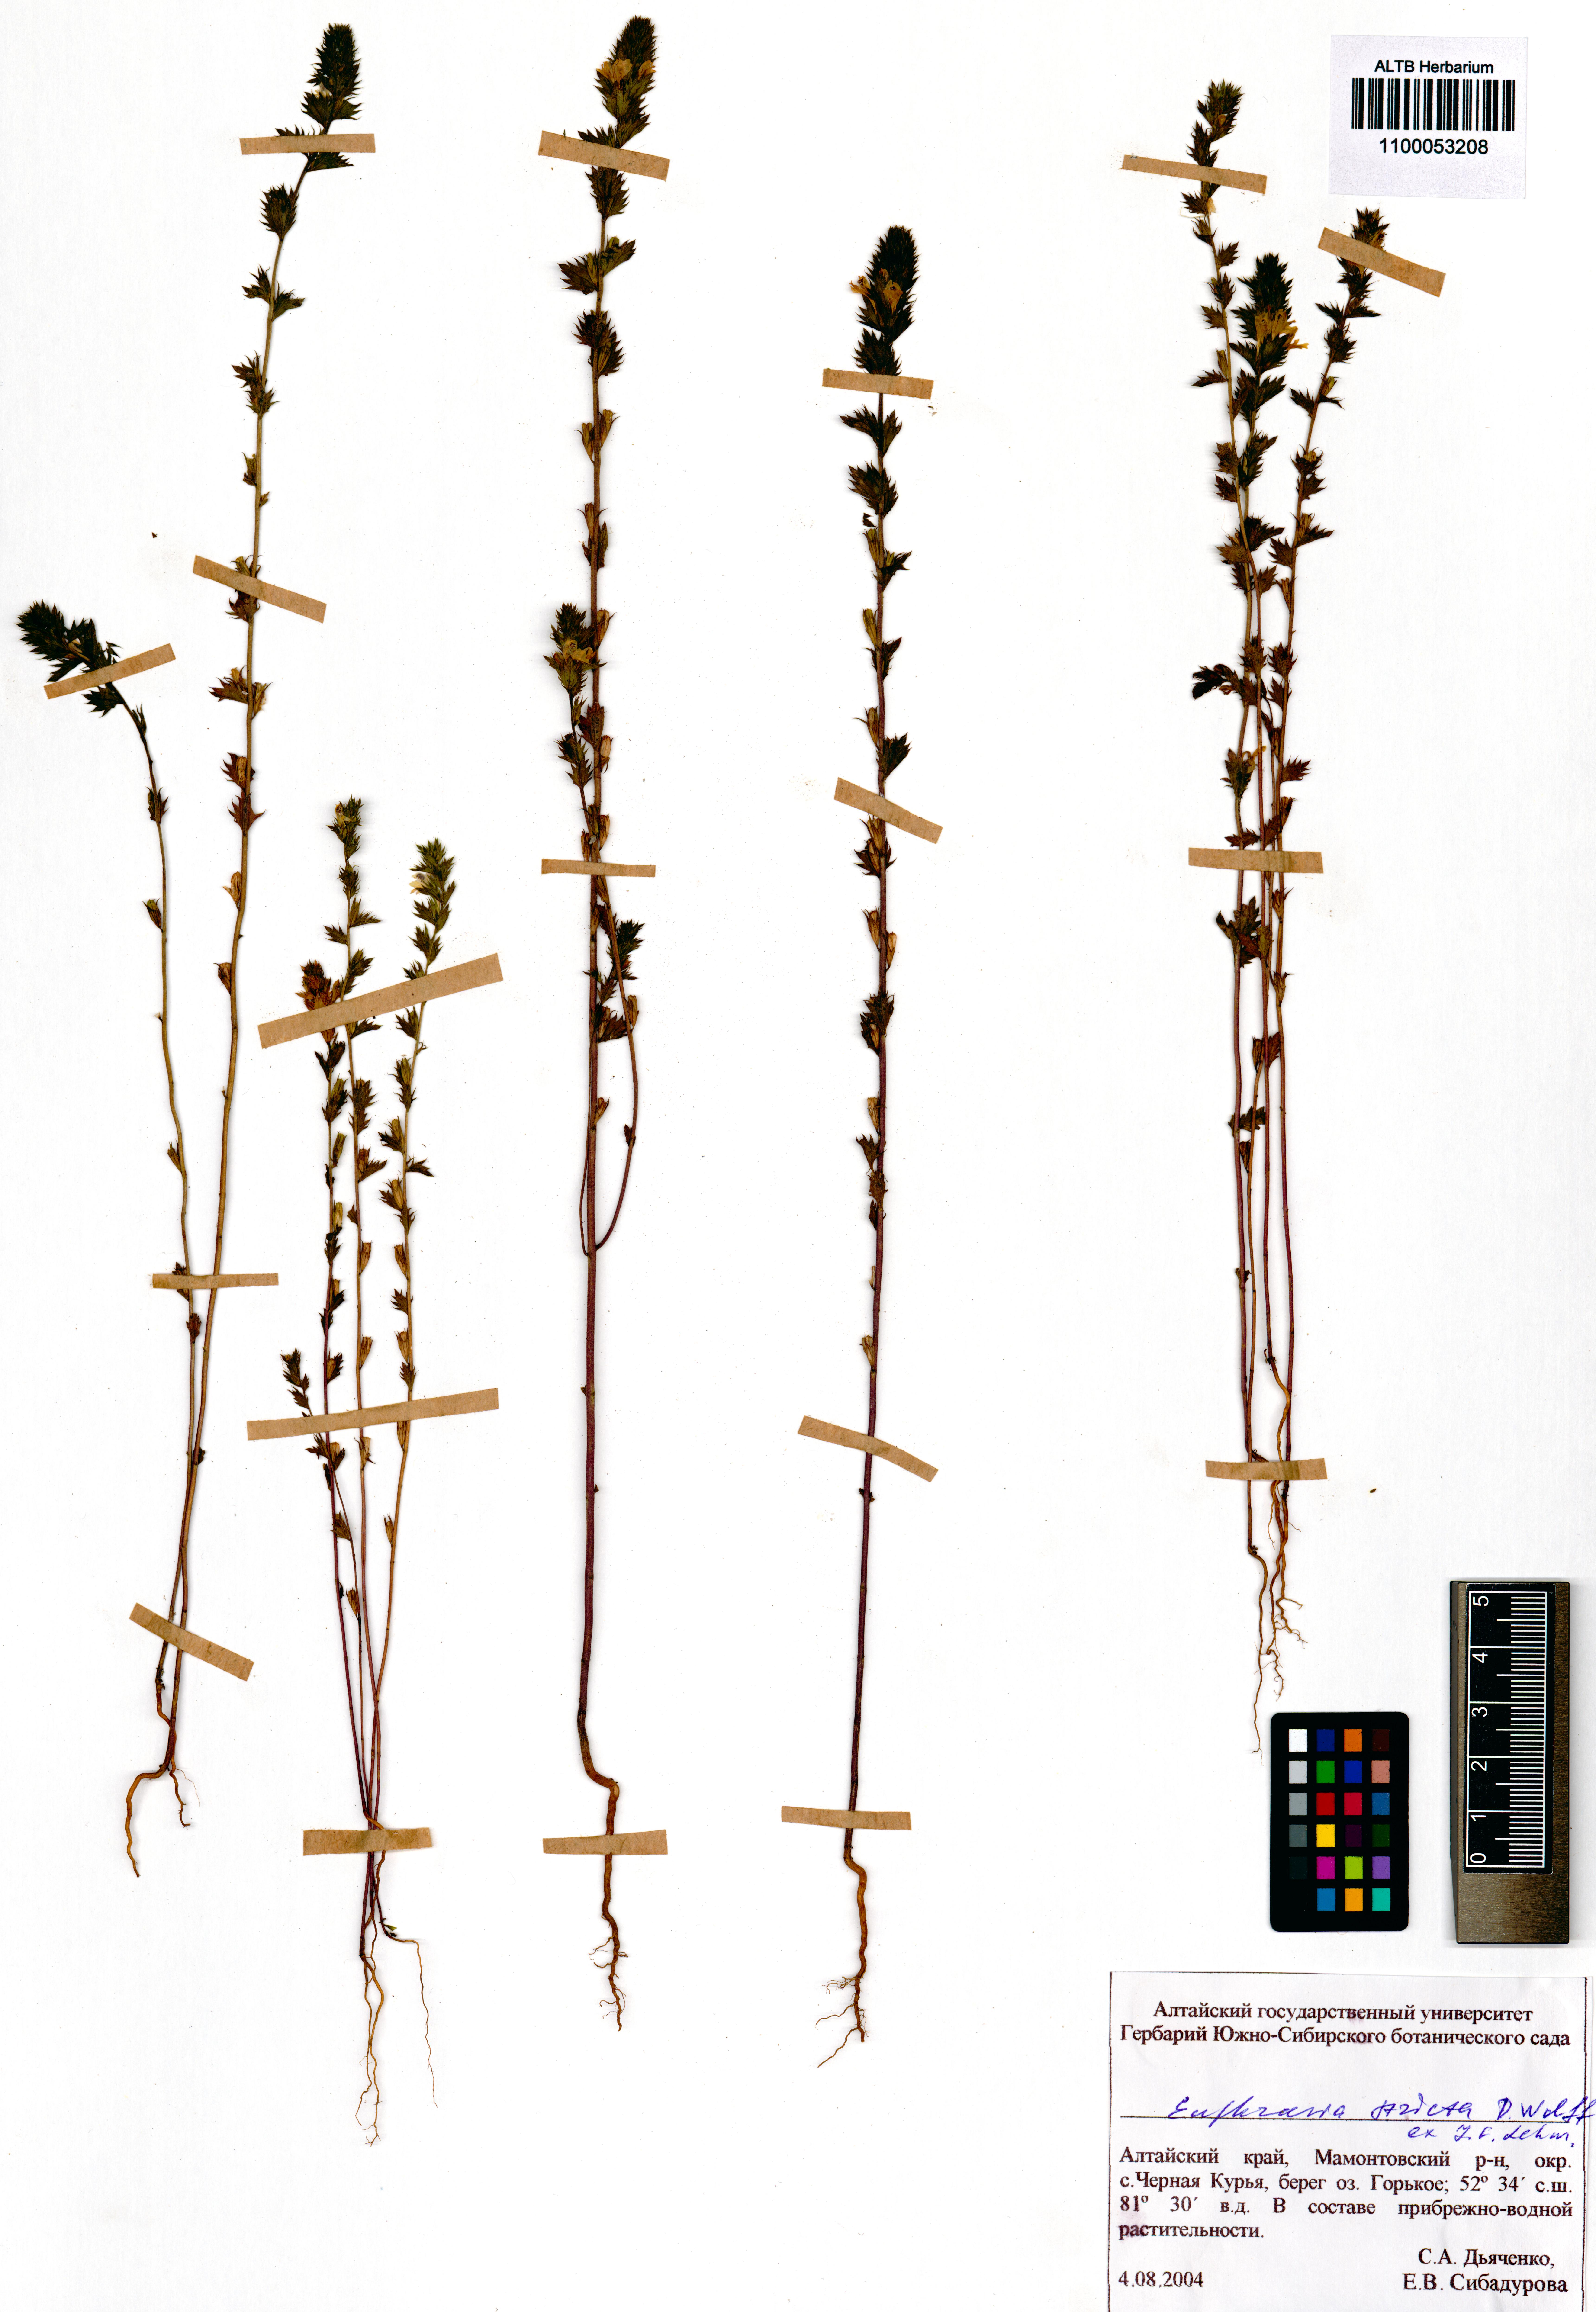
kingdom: Plantae
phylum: Tracheophyta
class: Magnoliopsida
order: Lamiales
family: Orobanchaceae
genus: Euphrasia
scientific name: Euphrasia stricta
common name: Drug eyebright
